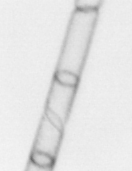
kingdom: Chromista
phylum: Ochrophyta
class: Bacillariophyceae
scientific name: Bacillariophyceae
